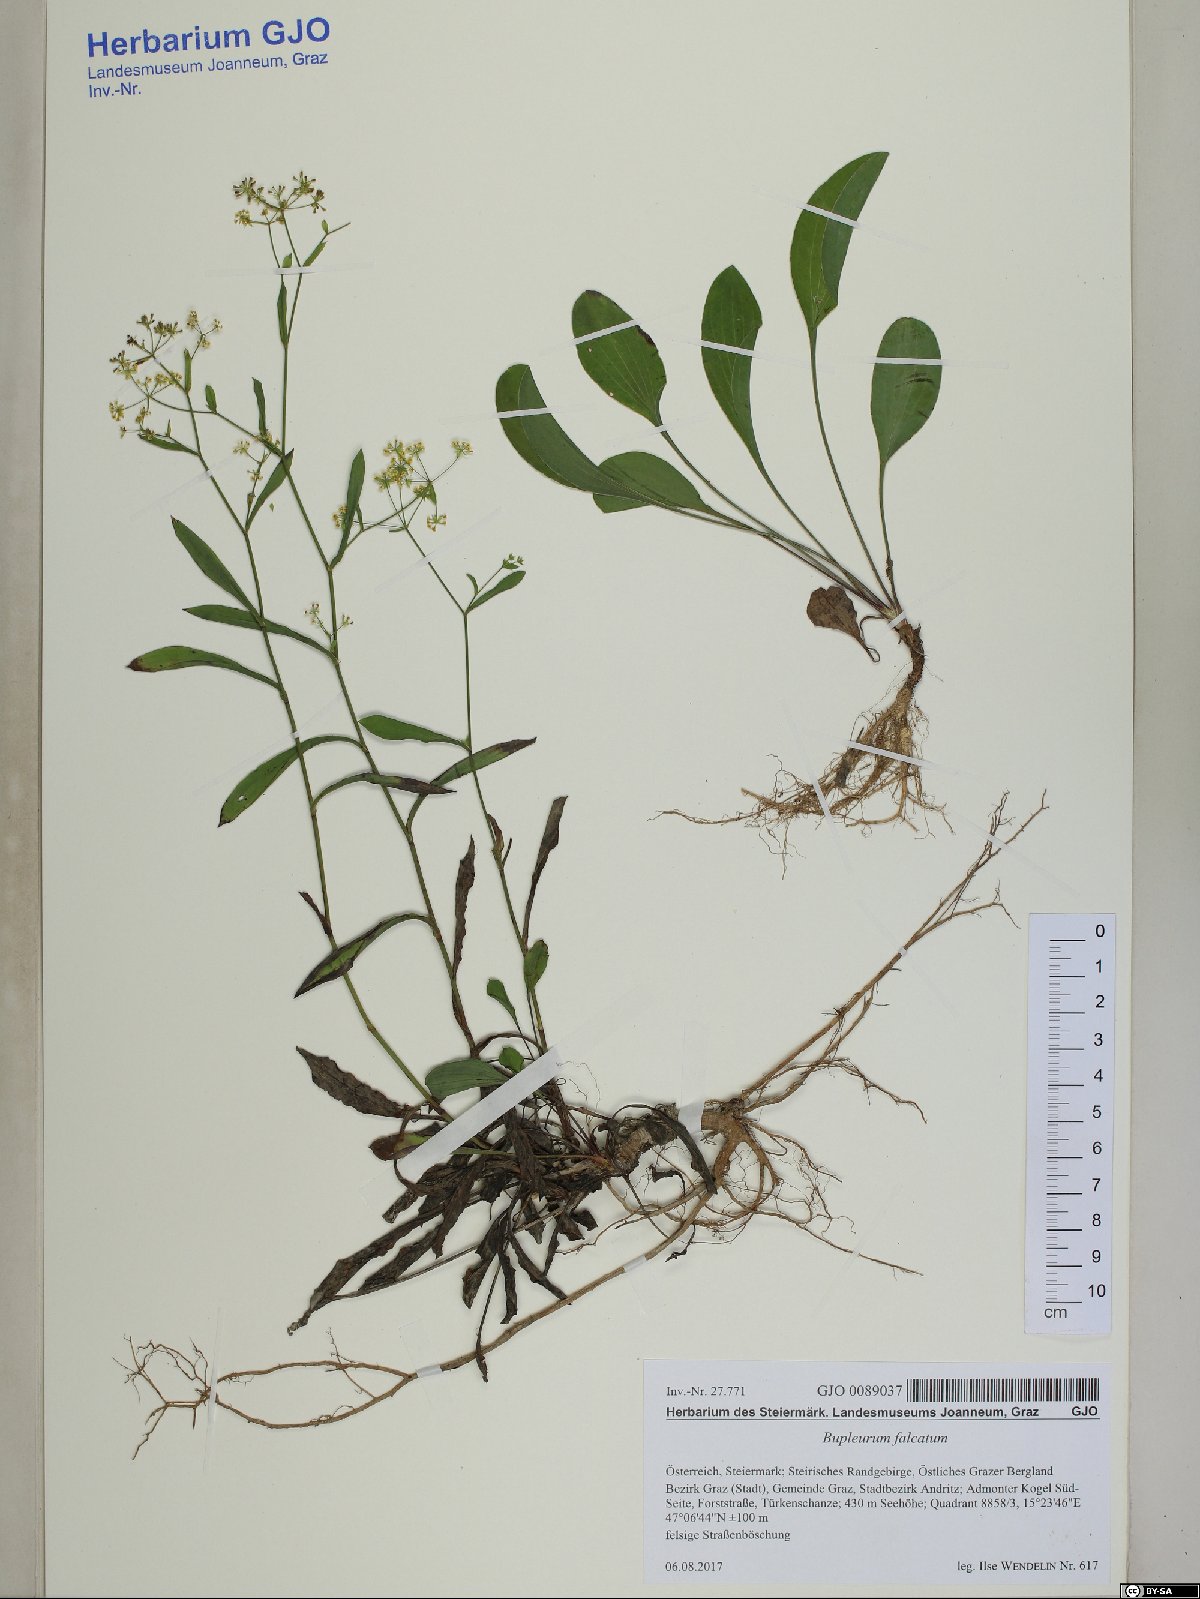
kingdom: Plantae
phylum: Tracheophyta
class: Magnoliopsida
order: Apiales
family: Apiaceae
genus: Bupleurum
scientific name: Bupleurum falcatum
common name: Sickle-leaved hare's-ear
